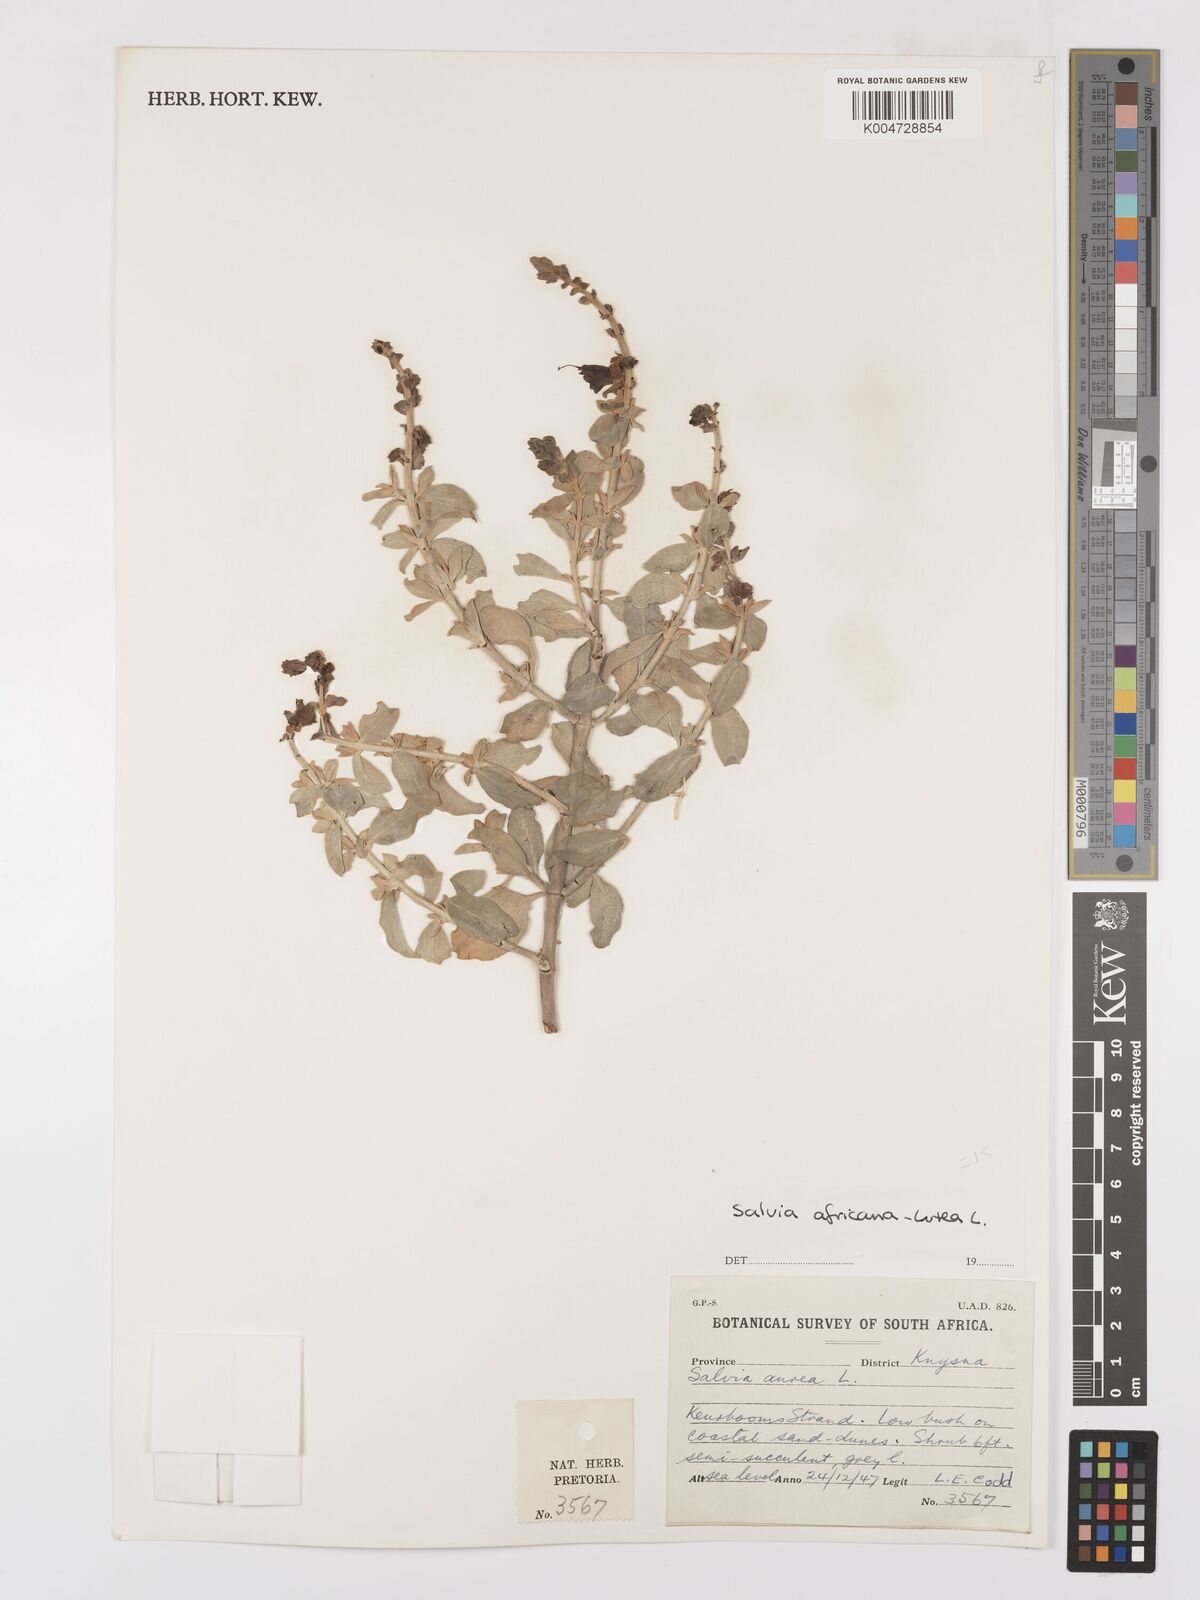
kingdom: Plantae
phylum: Tracheophyta
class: Magnoliopsida
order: Lamiales
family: Lamiaceae
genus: Salvia
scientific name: Salvia aurea
